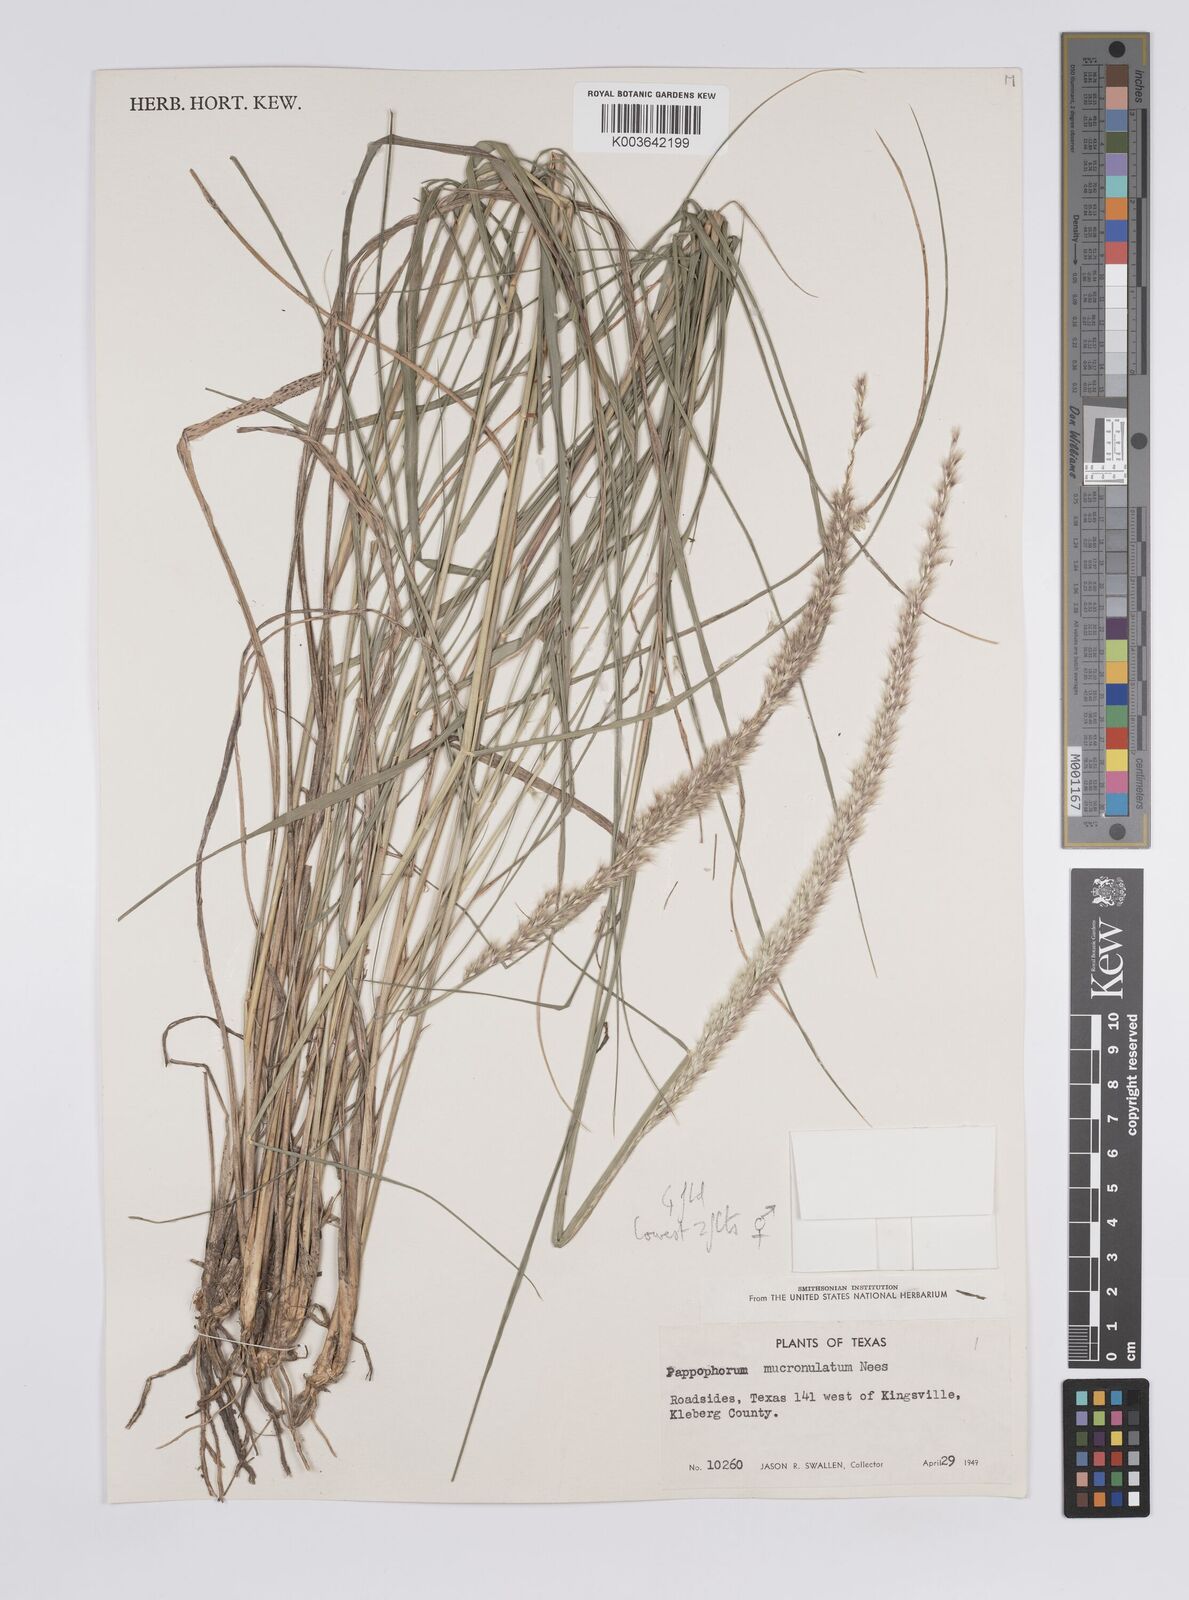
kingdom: Plantae
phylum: Tracheophyta
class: Liliopsida
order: Poales
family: Poaceae
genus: Pappophorum
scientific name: Pappophorum mucronulatum
